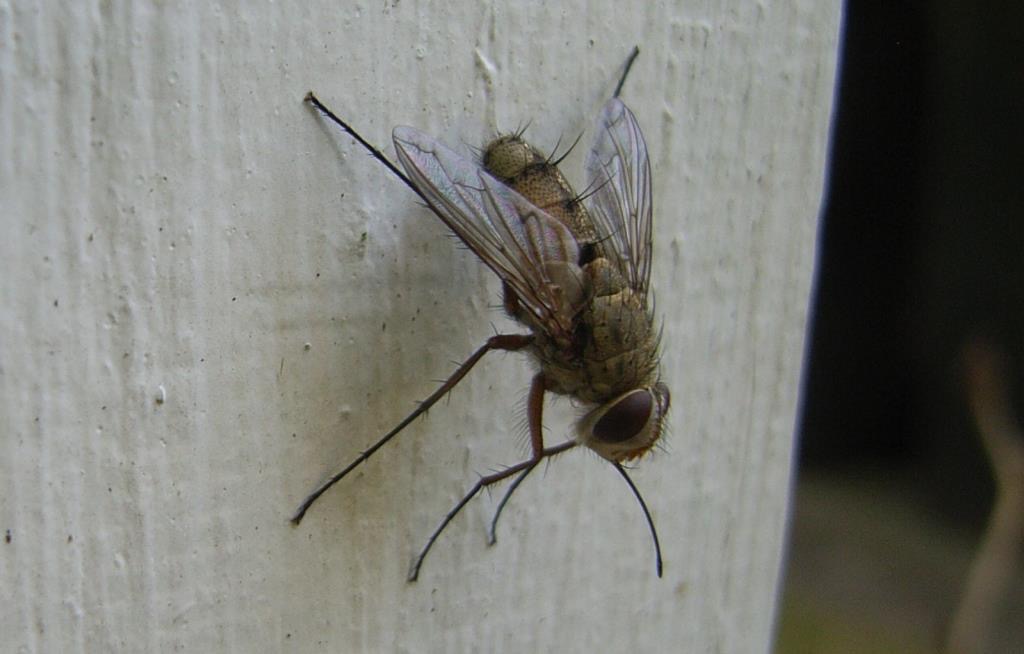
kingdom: Animalia
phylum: Arthropoda
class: Insecta
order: Diptera
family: Tachinidae
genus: Prosena
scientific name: Prosena siberita
